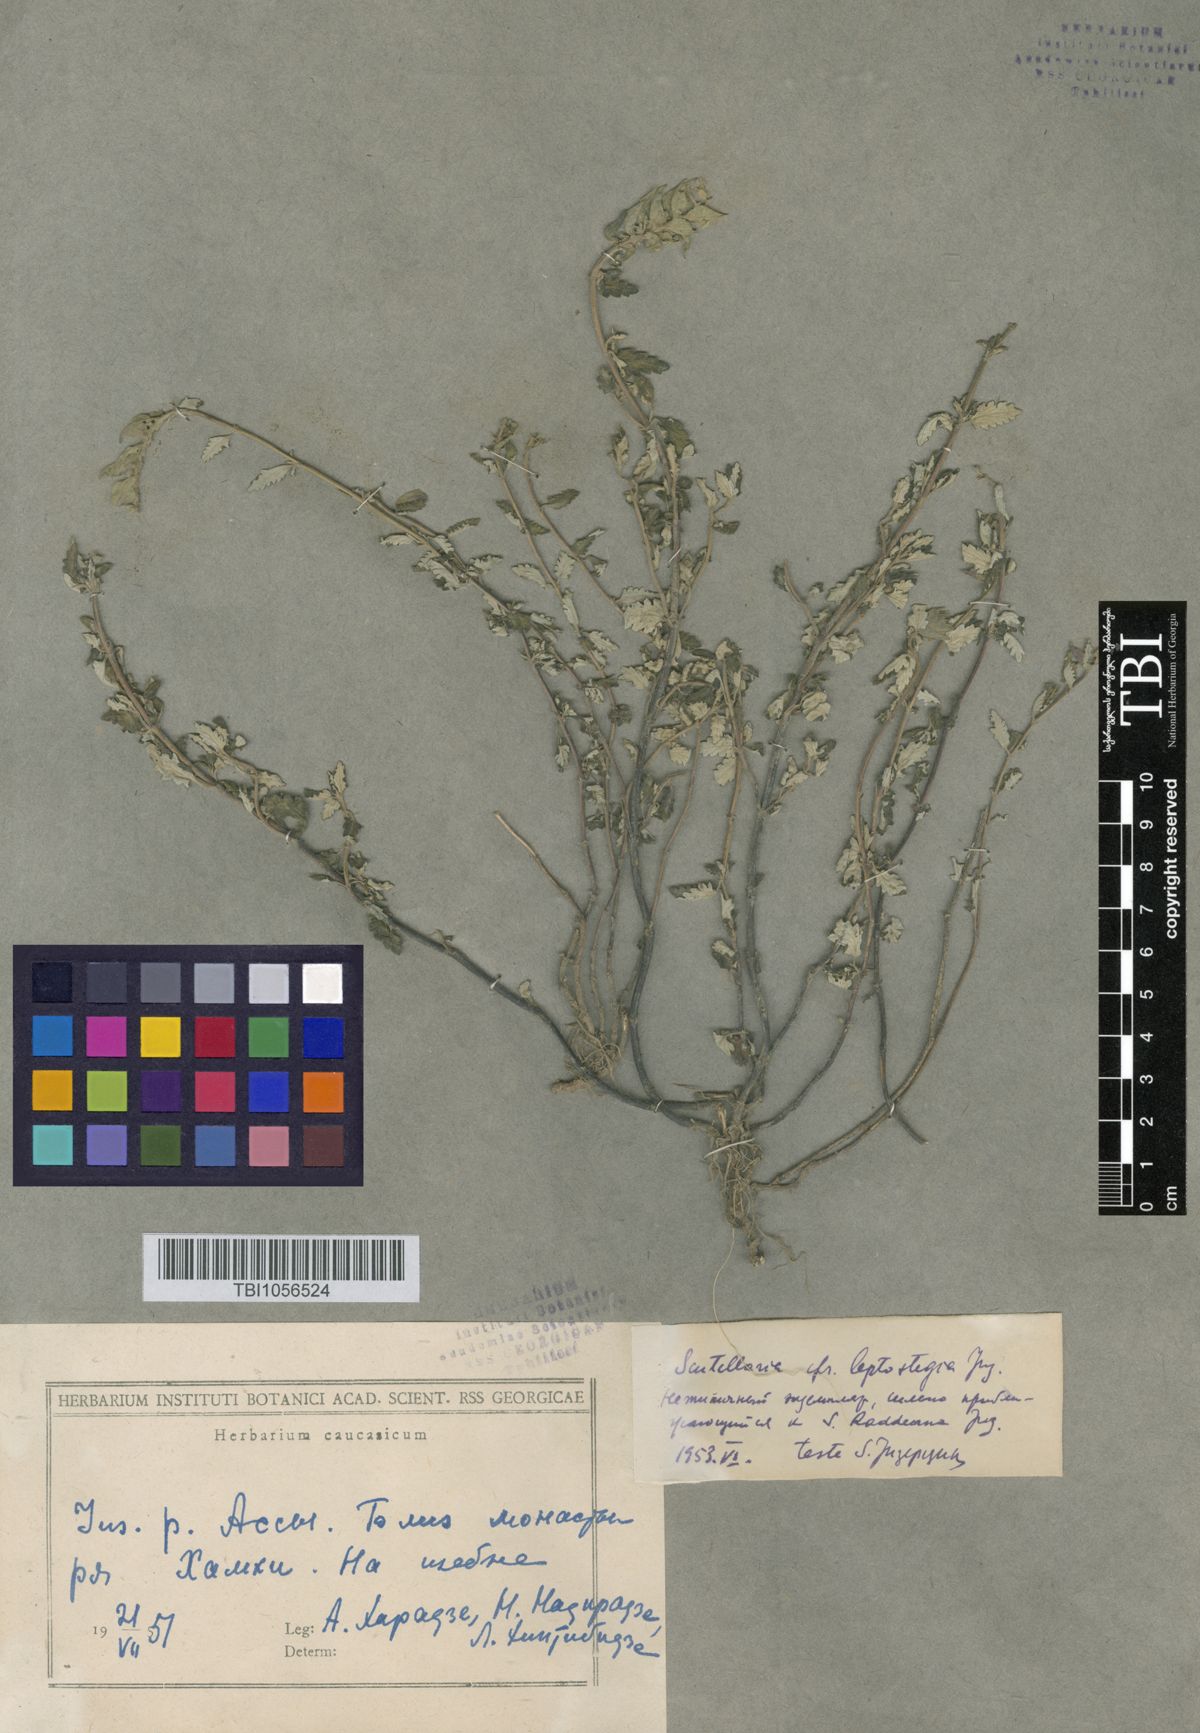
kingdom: Plantae
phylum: Tracheophyta
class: Magnoliopsida
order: Lamiales
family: Lamiaceae
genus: Scutellaria
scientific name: Scutellaria leptostegia
